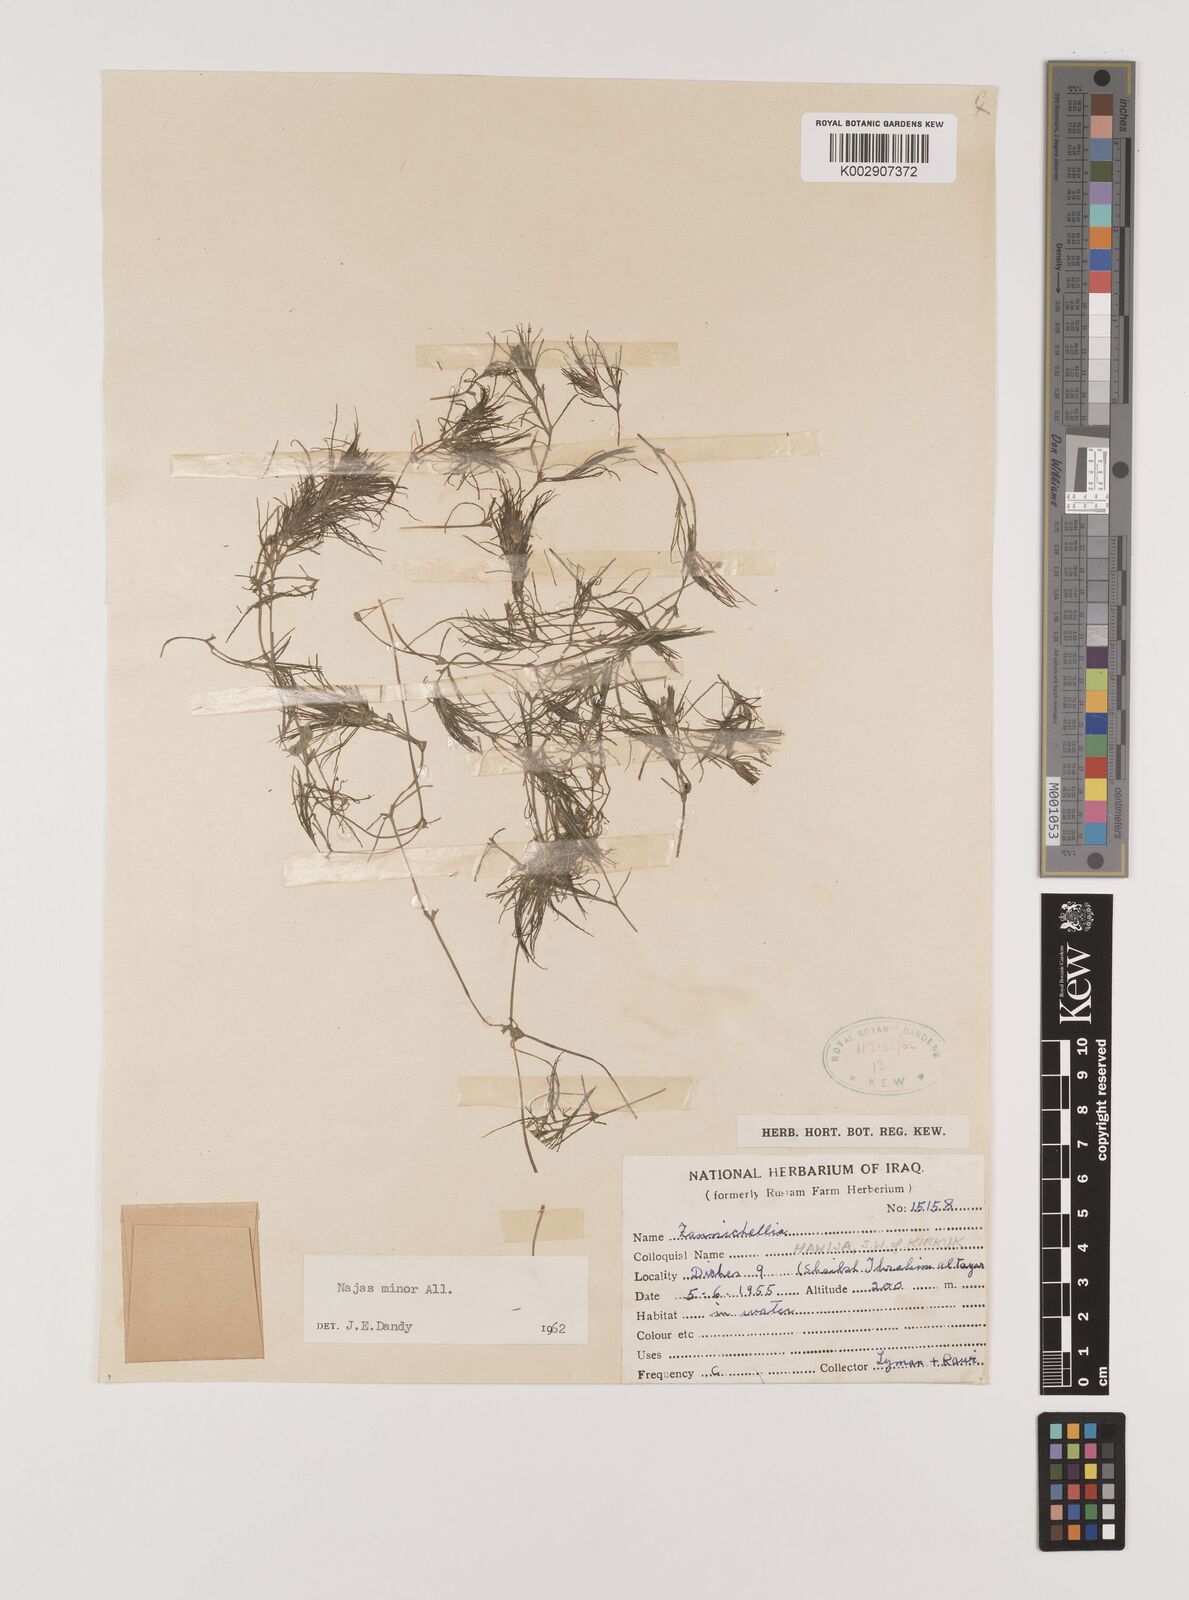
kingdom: Plantae
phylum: Tracheophyta
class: Liliopsida
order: Alismatales
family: Hydrocharitaceae
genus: Najas
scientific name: Najas minor
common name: Brittle naiad
